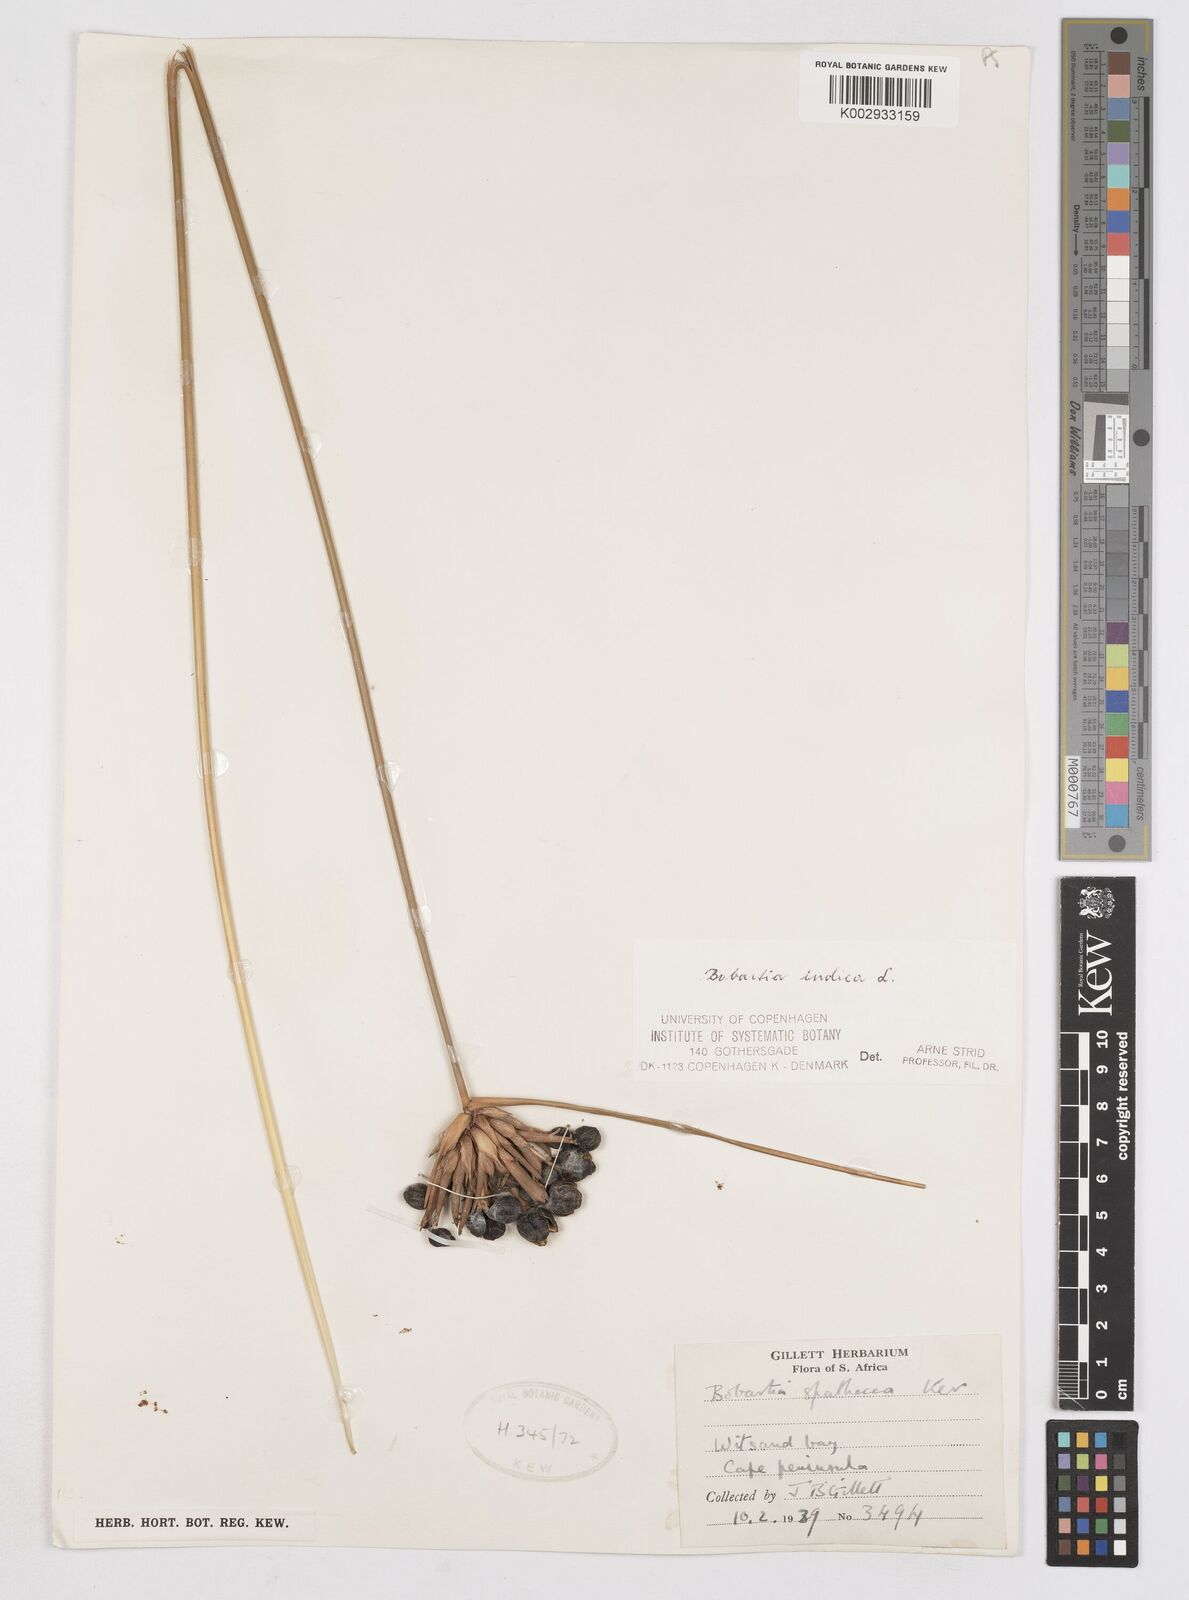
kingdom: Plantae
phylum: Tracheophyta
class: Liliopsida
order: Asparagales
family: Iridaceae
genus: Bobartia
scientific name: Bobartia indica
